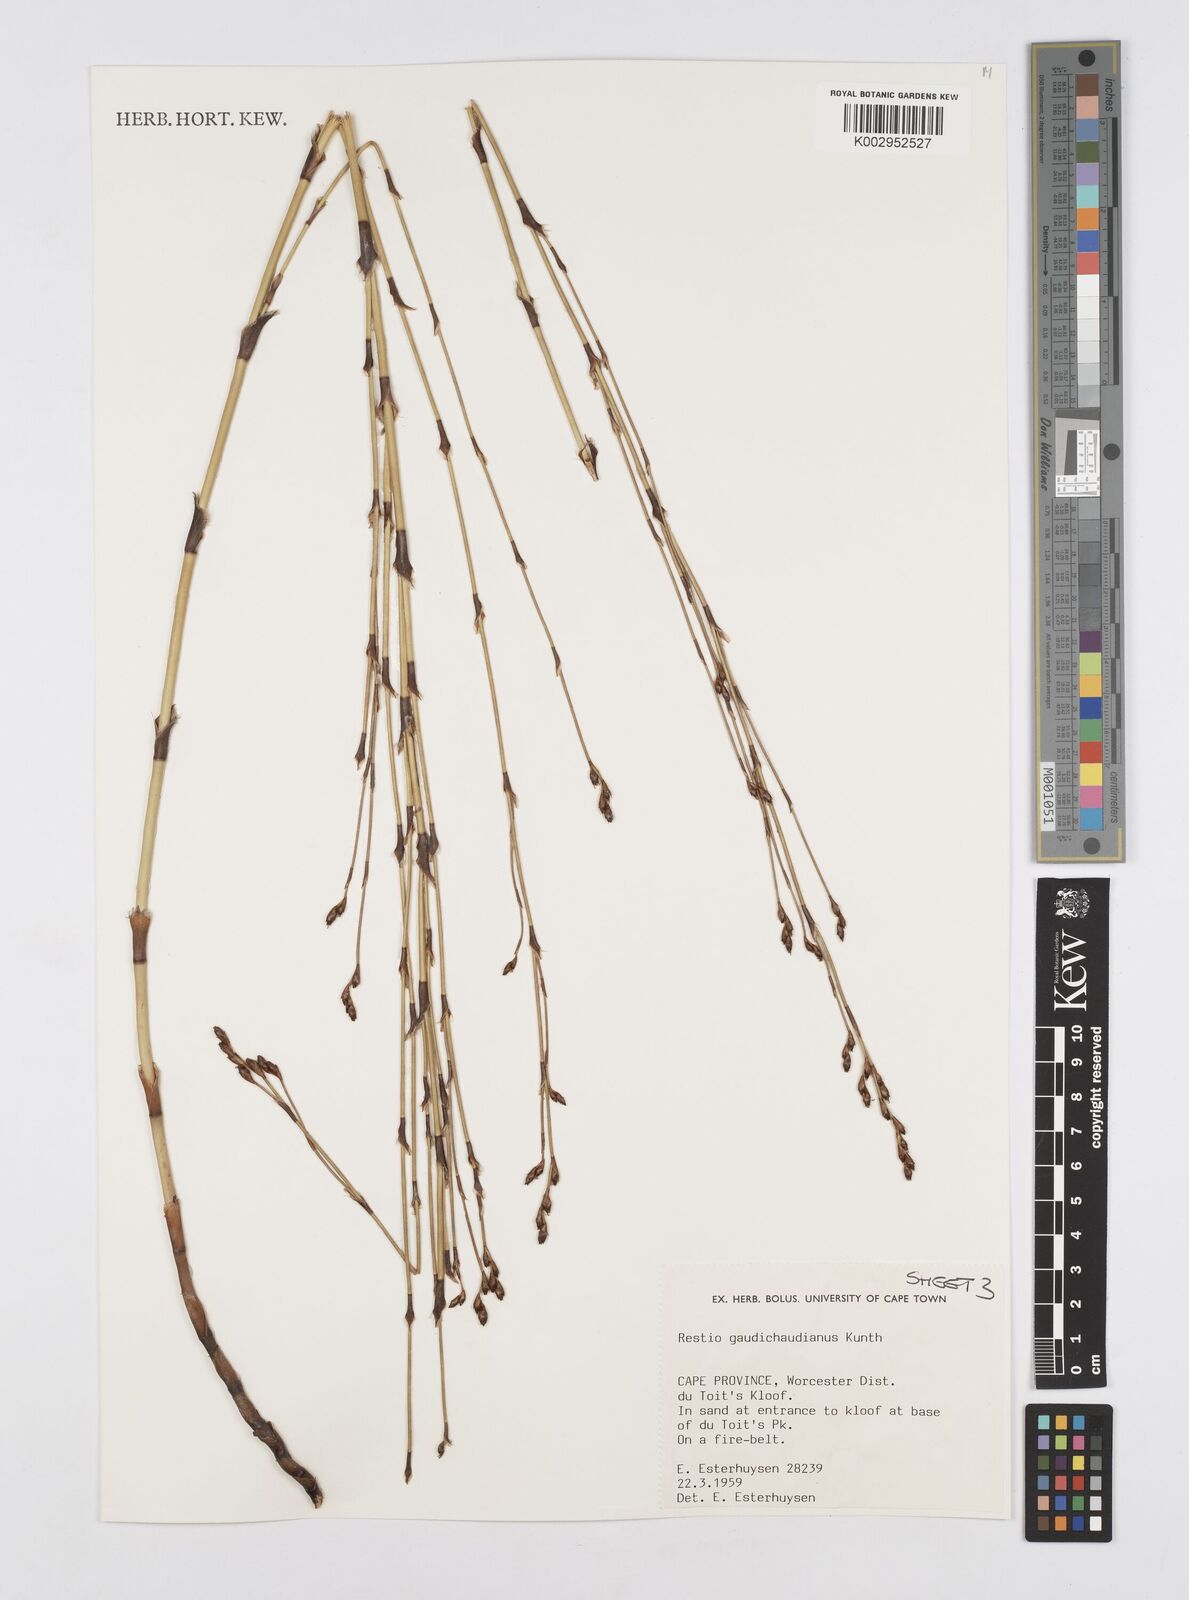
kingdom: Plantae
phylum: Tracheophyta
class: Liliopsida
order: Poales
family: Restionaceae
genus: Restio
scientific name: Restio gaudichaudianus
